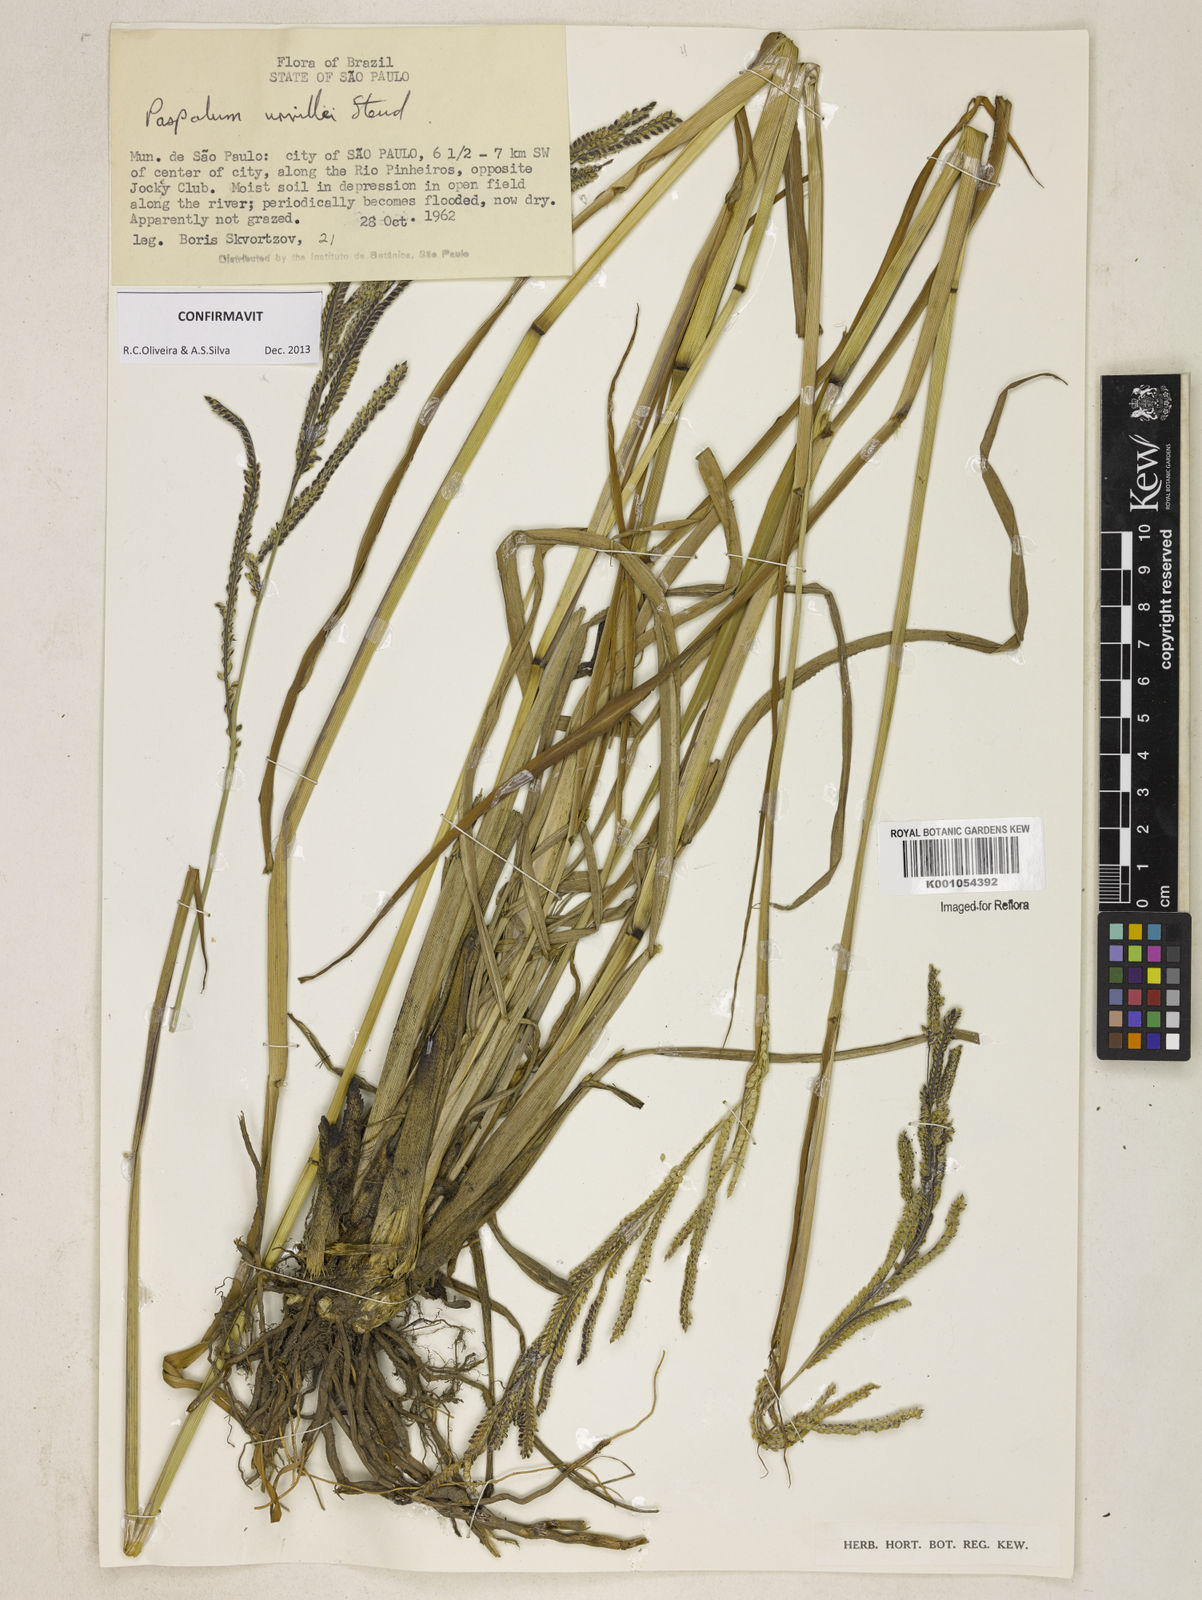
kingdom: Plantae
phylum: Tracheophyta
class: Liliopsida
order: Poales
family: Poaceae
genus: Paspalum
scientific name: Paspalum urvillei
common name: Vasey's grass
